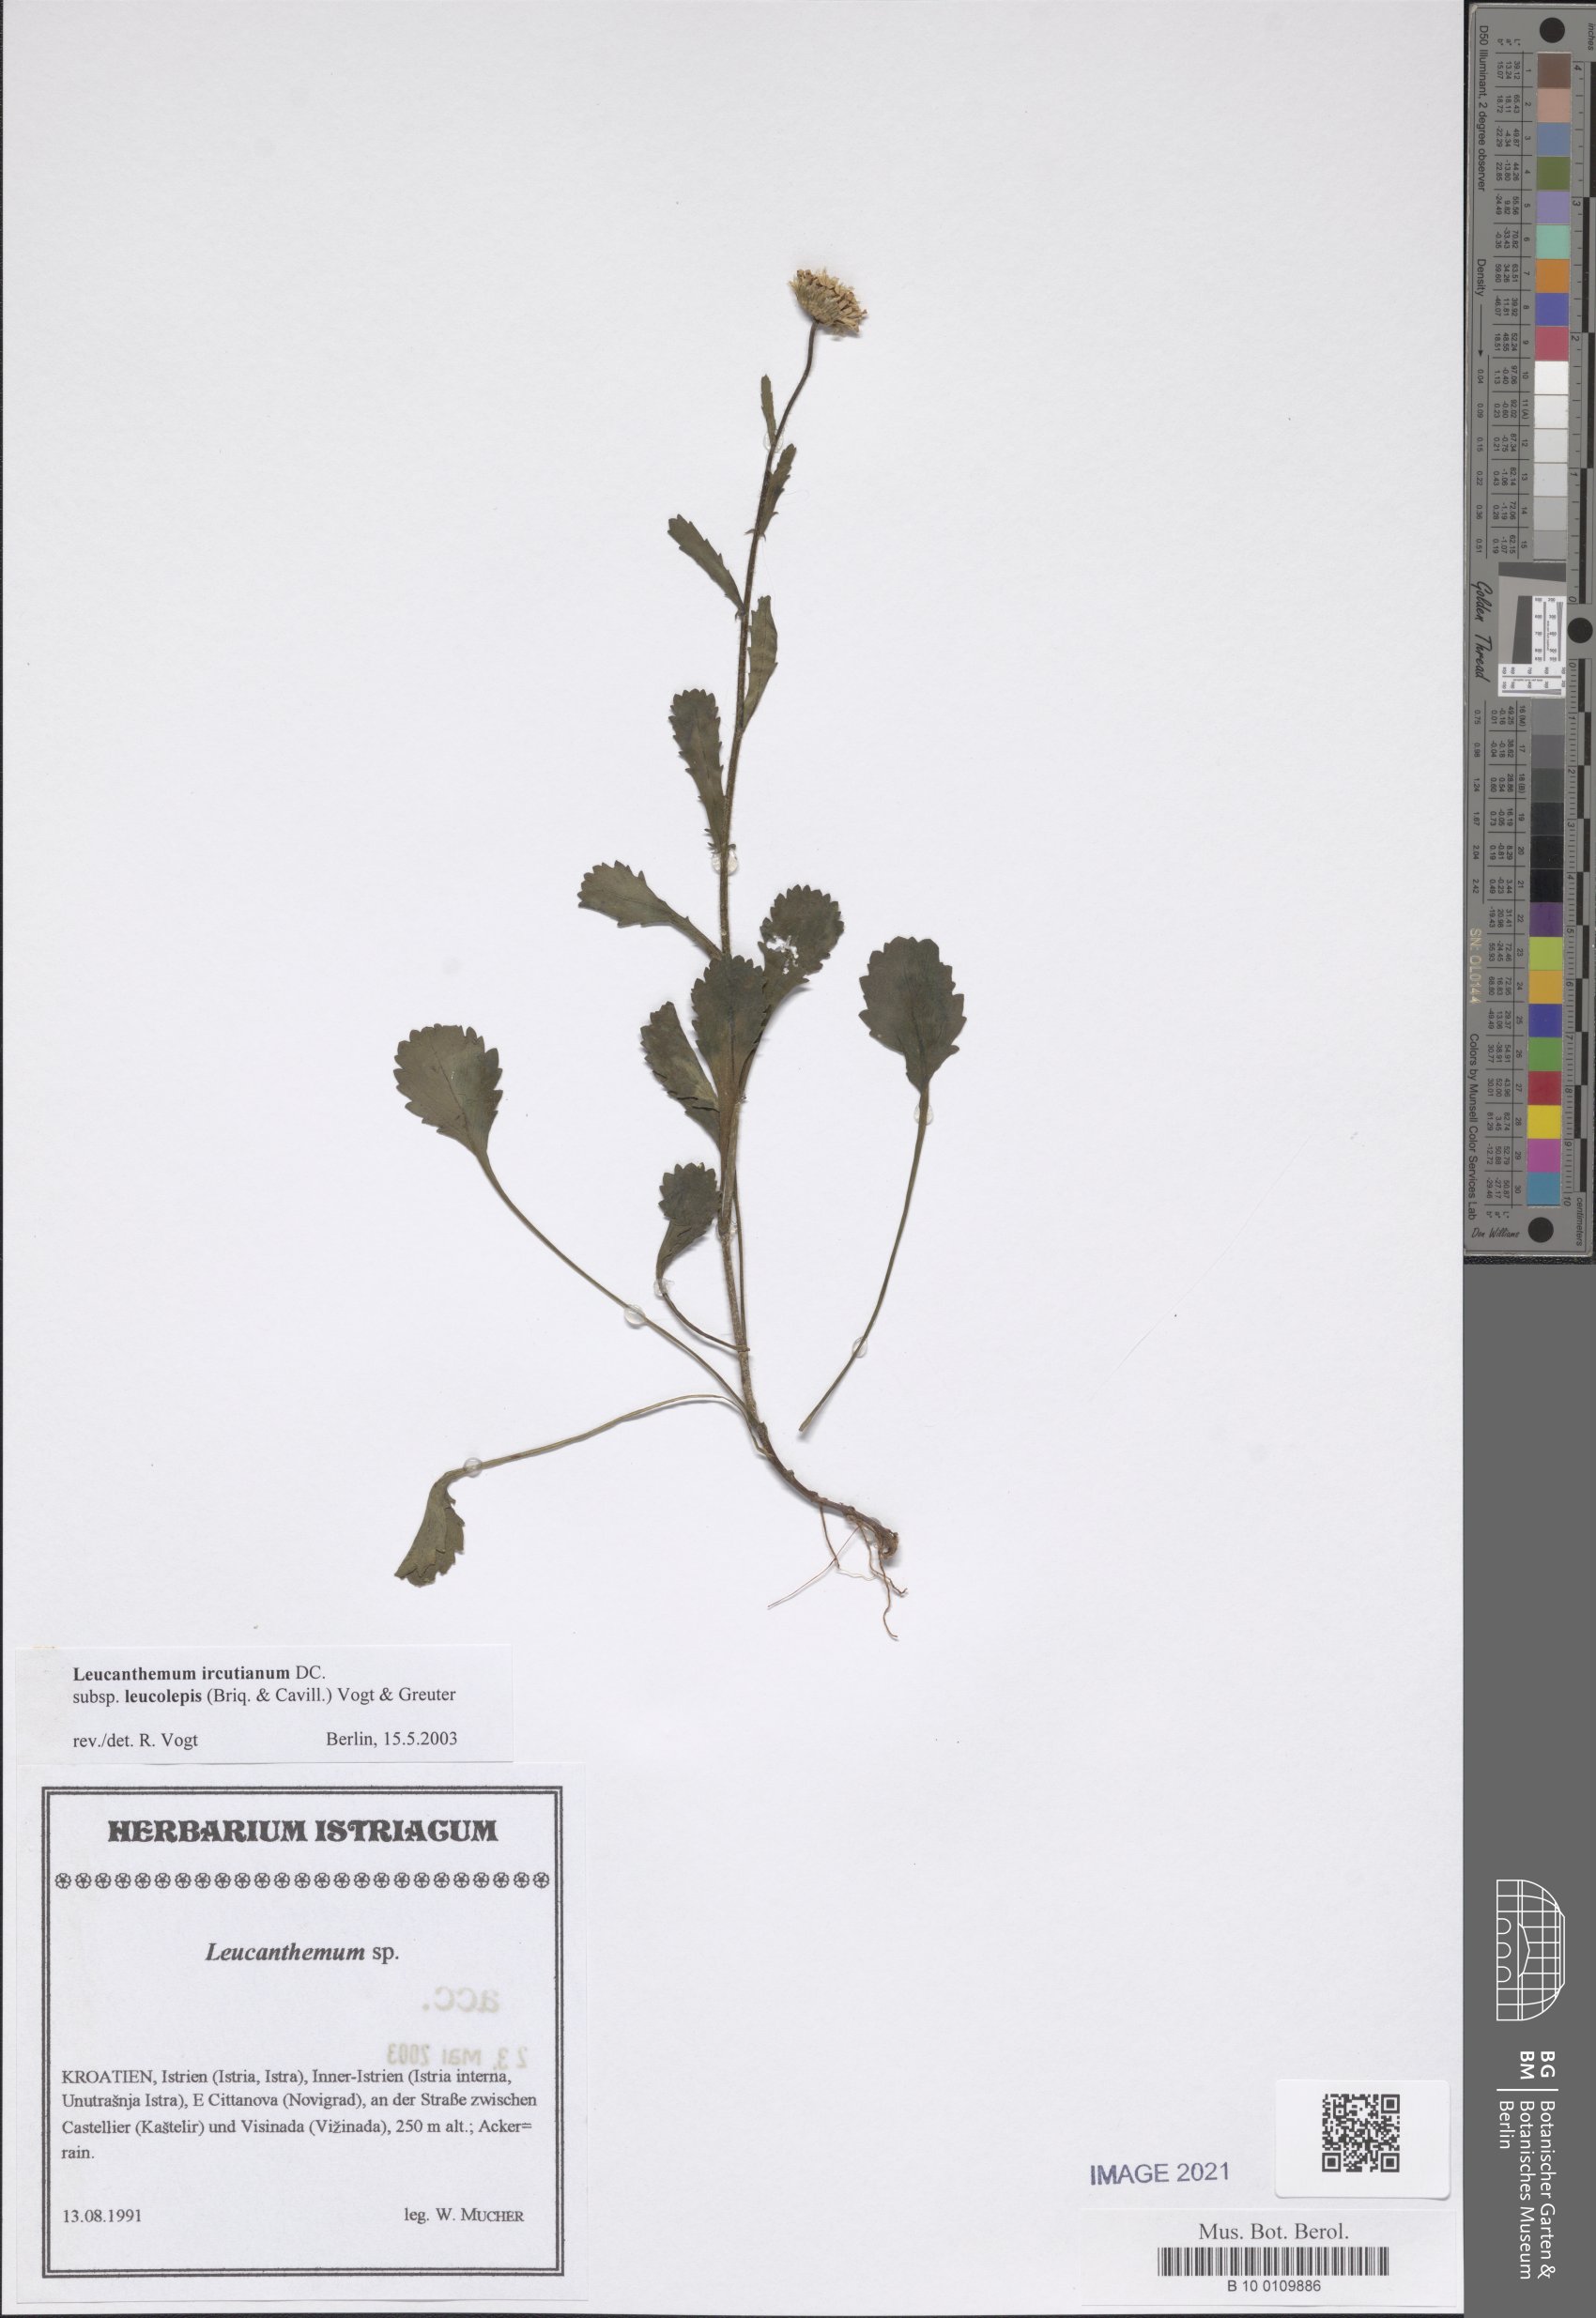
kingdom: Plantae
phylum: Tracheophyta
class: Magnoliopsida
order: Asterales
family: Asteraceae
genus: Leucanthemum
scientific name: Leucanthemum ircutianum
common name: Daisy
